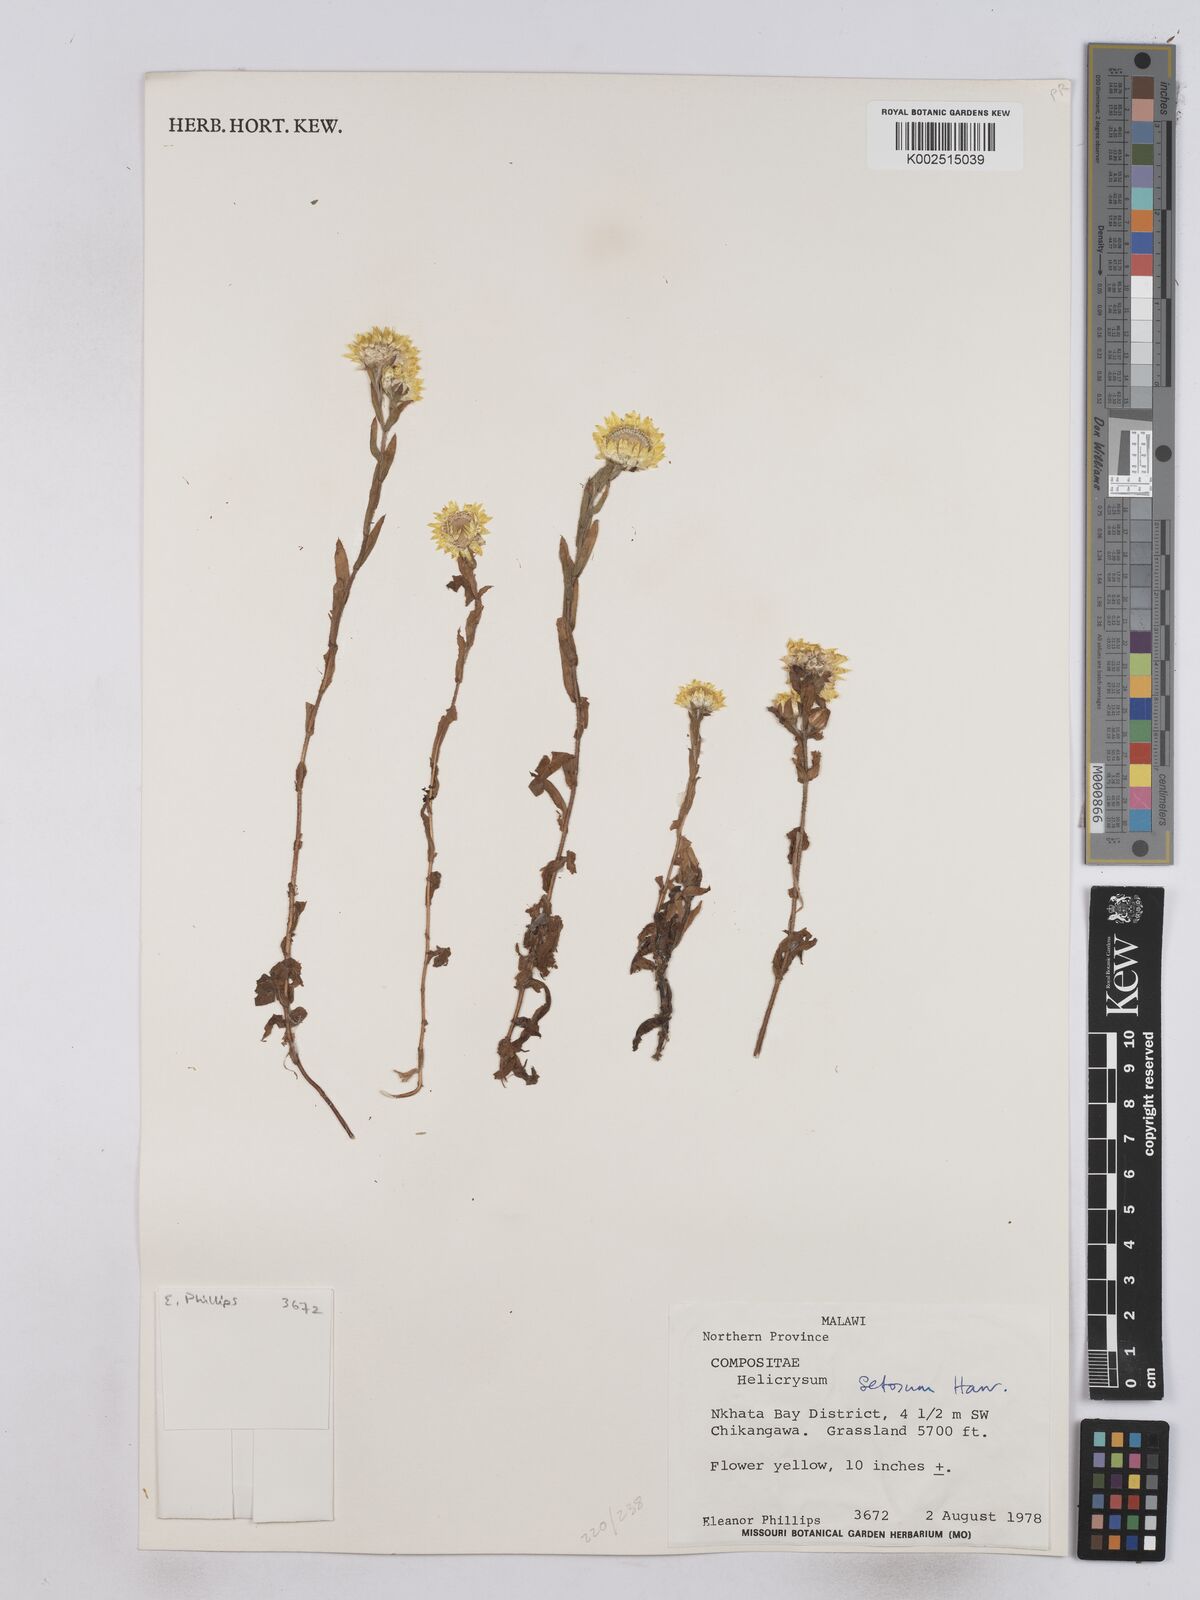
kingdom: Plantae
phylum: Tracheophyta
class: Magnoliopsida
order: Asterales
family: Asteraceae
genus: Helichrysum
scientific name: Helichrysum setosum
